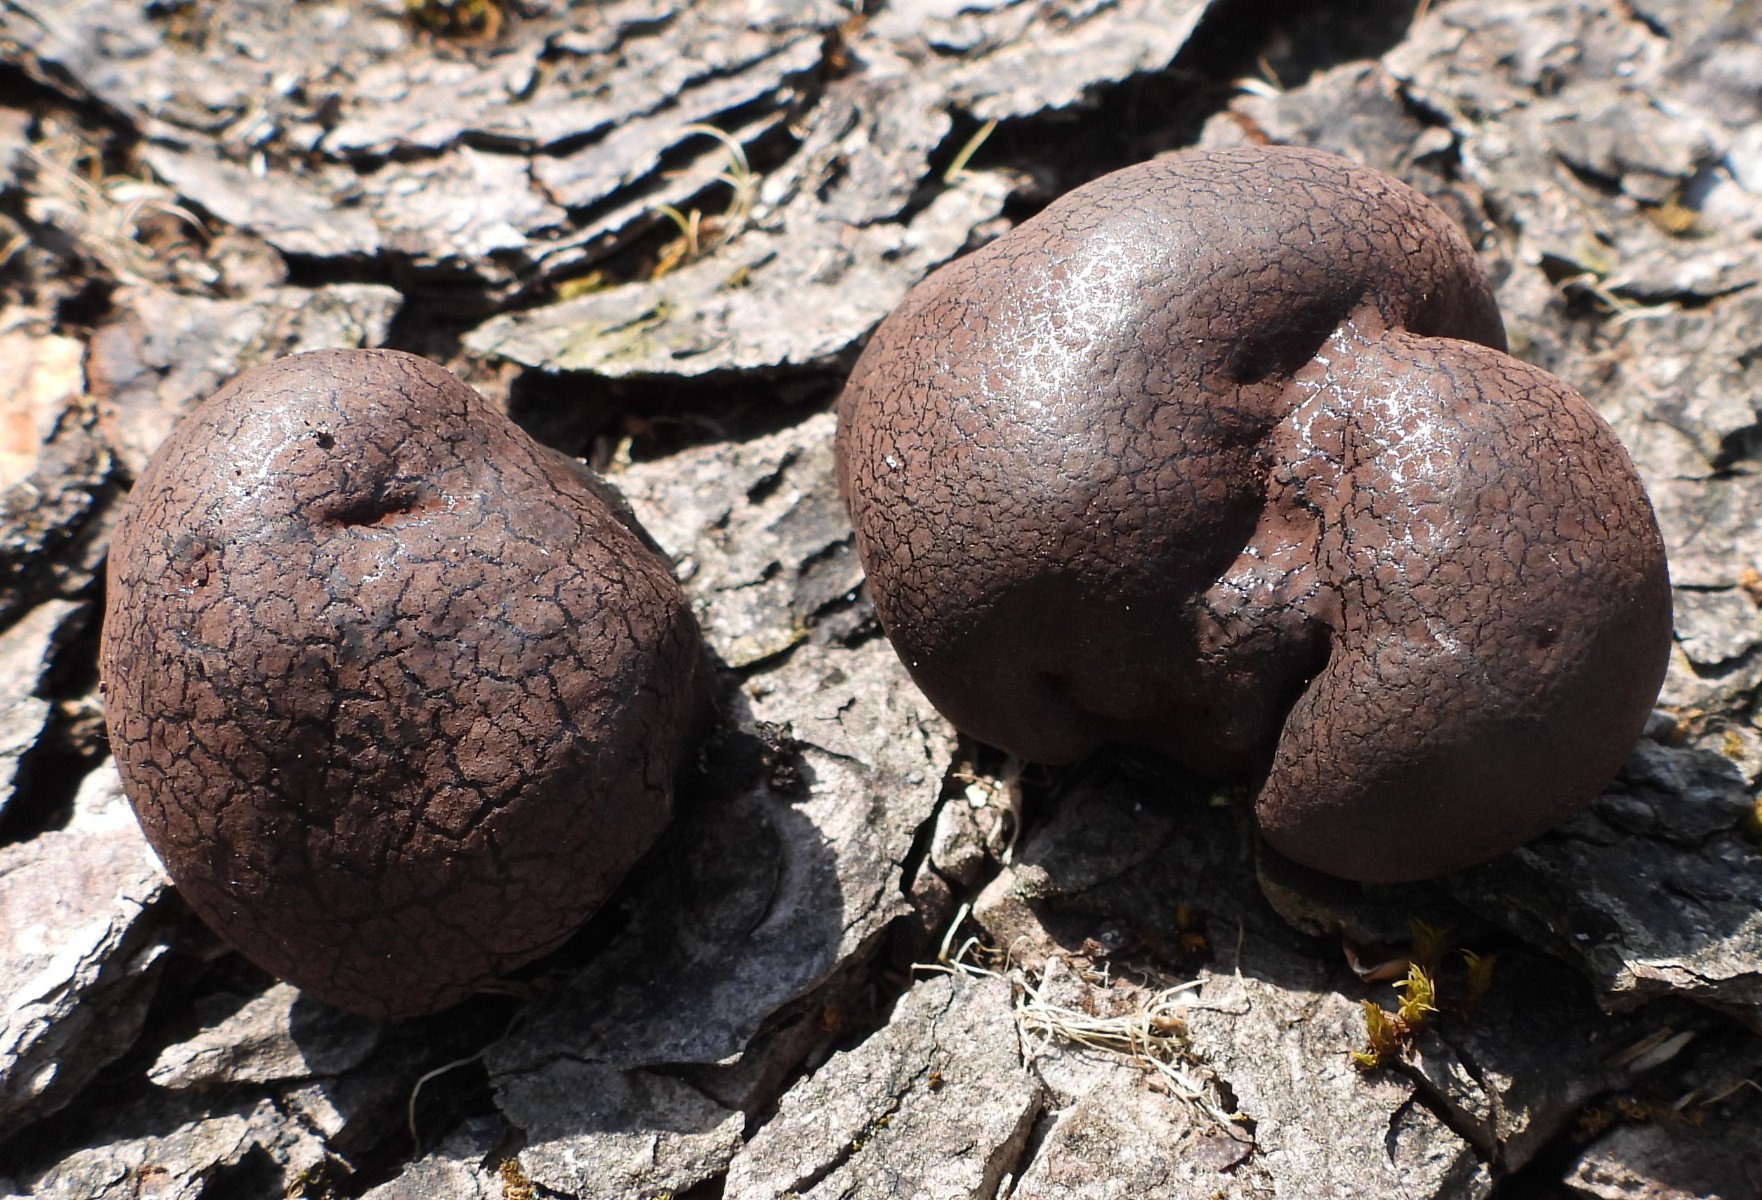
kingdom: Fungi
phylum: Ascomycota
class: Sordariomycetes
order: Xylariales
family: Hypoxylaceae
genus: Daldinia
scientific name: Daldinia concentrica
